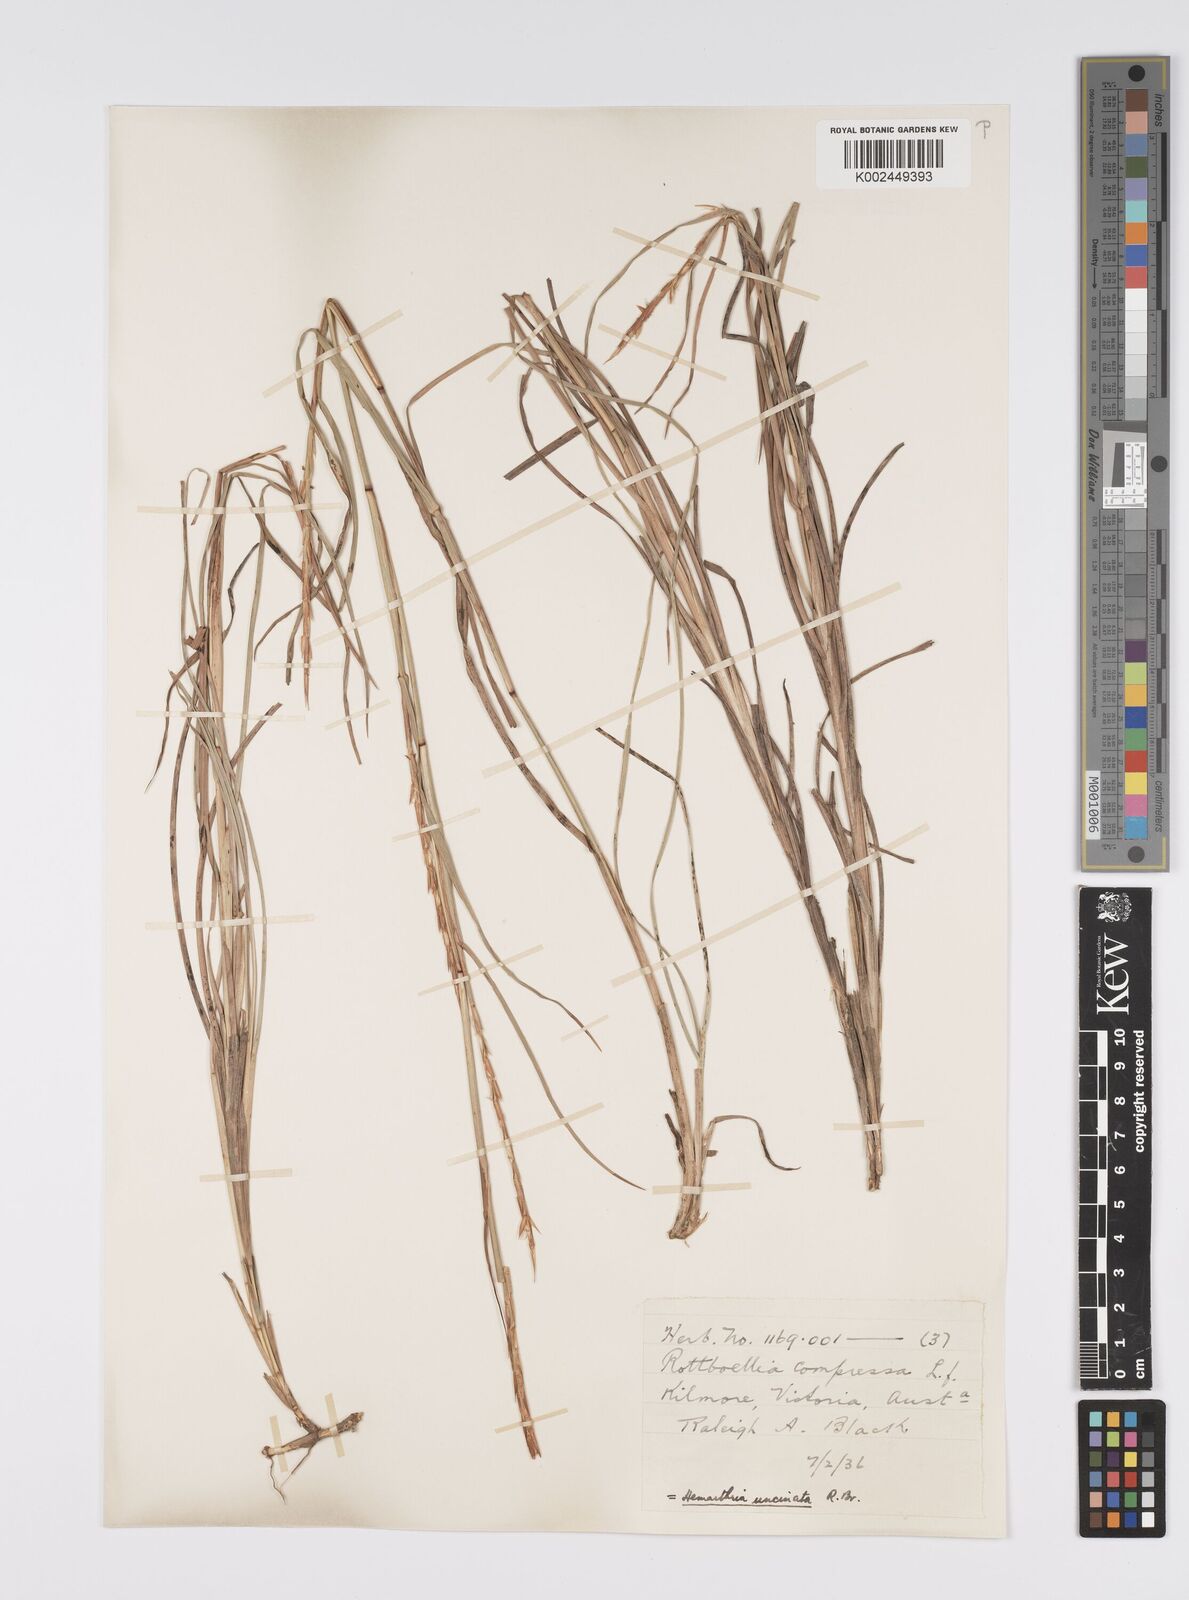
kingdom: Plantae
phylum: Tracheophyta
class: Liliopsida
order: Poales
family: Poaceae
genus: Hemarthria
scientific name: Hemarthria uncinata
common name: Matgrass
